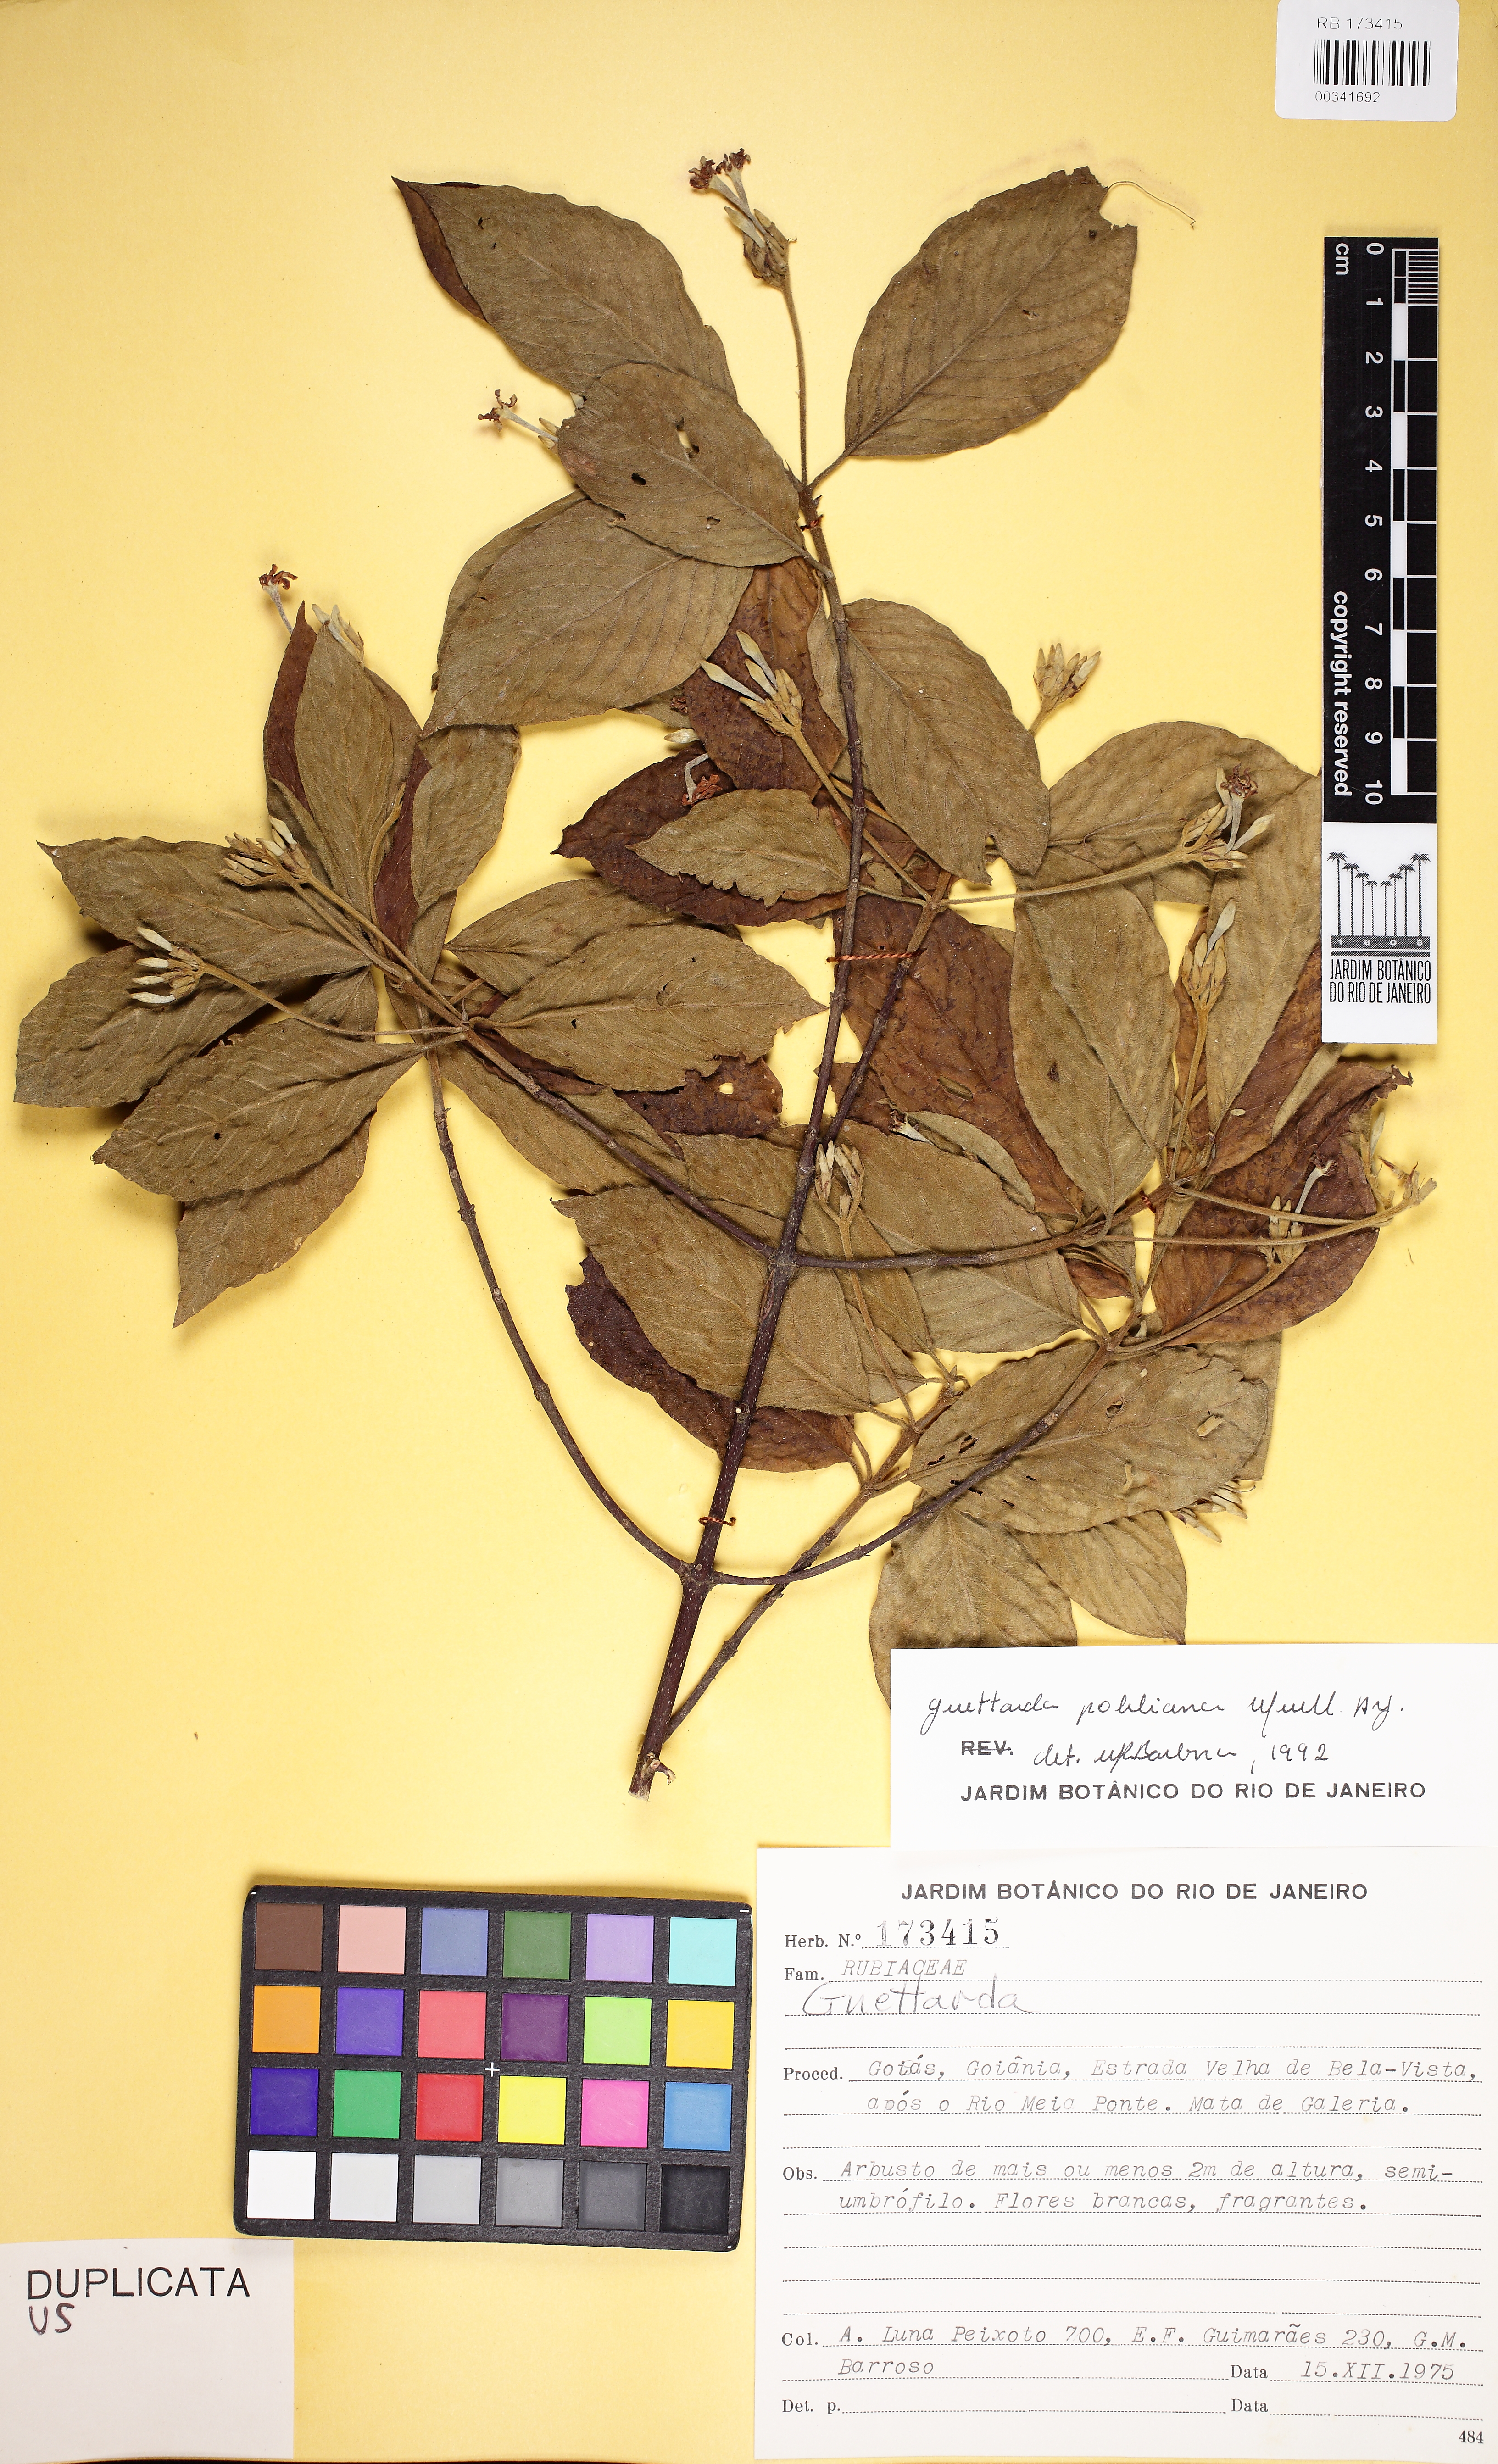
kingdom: Plantae
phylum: Tracheophyta
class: Magnoliopsida
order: Gentianales
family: Rubiaceae
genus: Guettarda
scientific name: Guettarda platypoda
